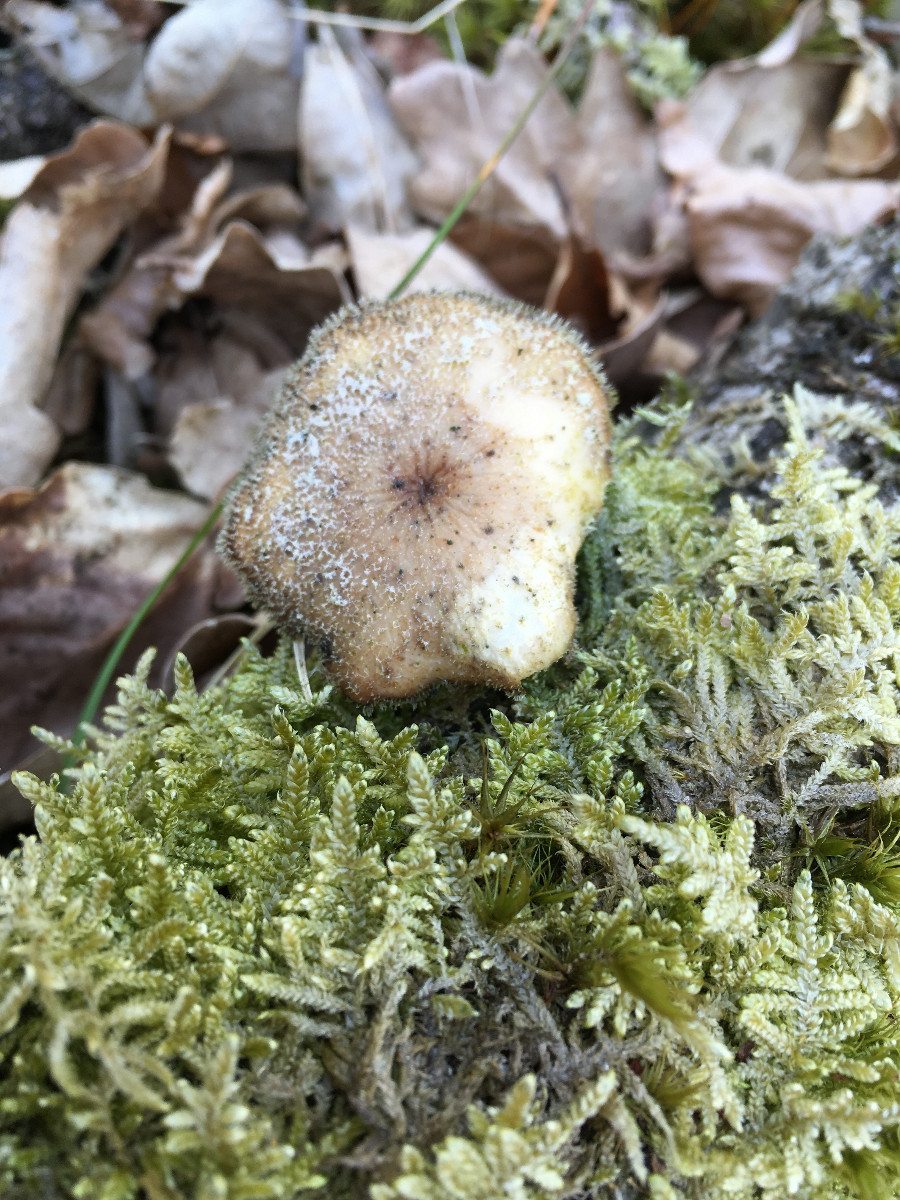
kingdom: Fungi
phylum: Basidiomycota
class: Agaricomycetes
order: Polyporales
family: Polyporaceae
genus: Lentinus
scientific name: Lentinus brumalis
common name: vinter-stilkporesvamp
